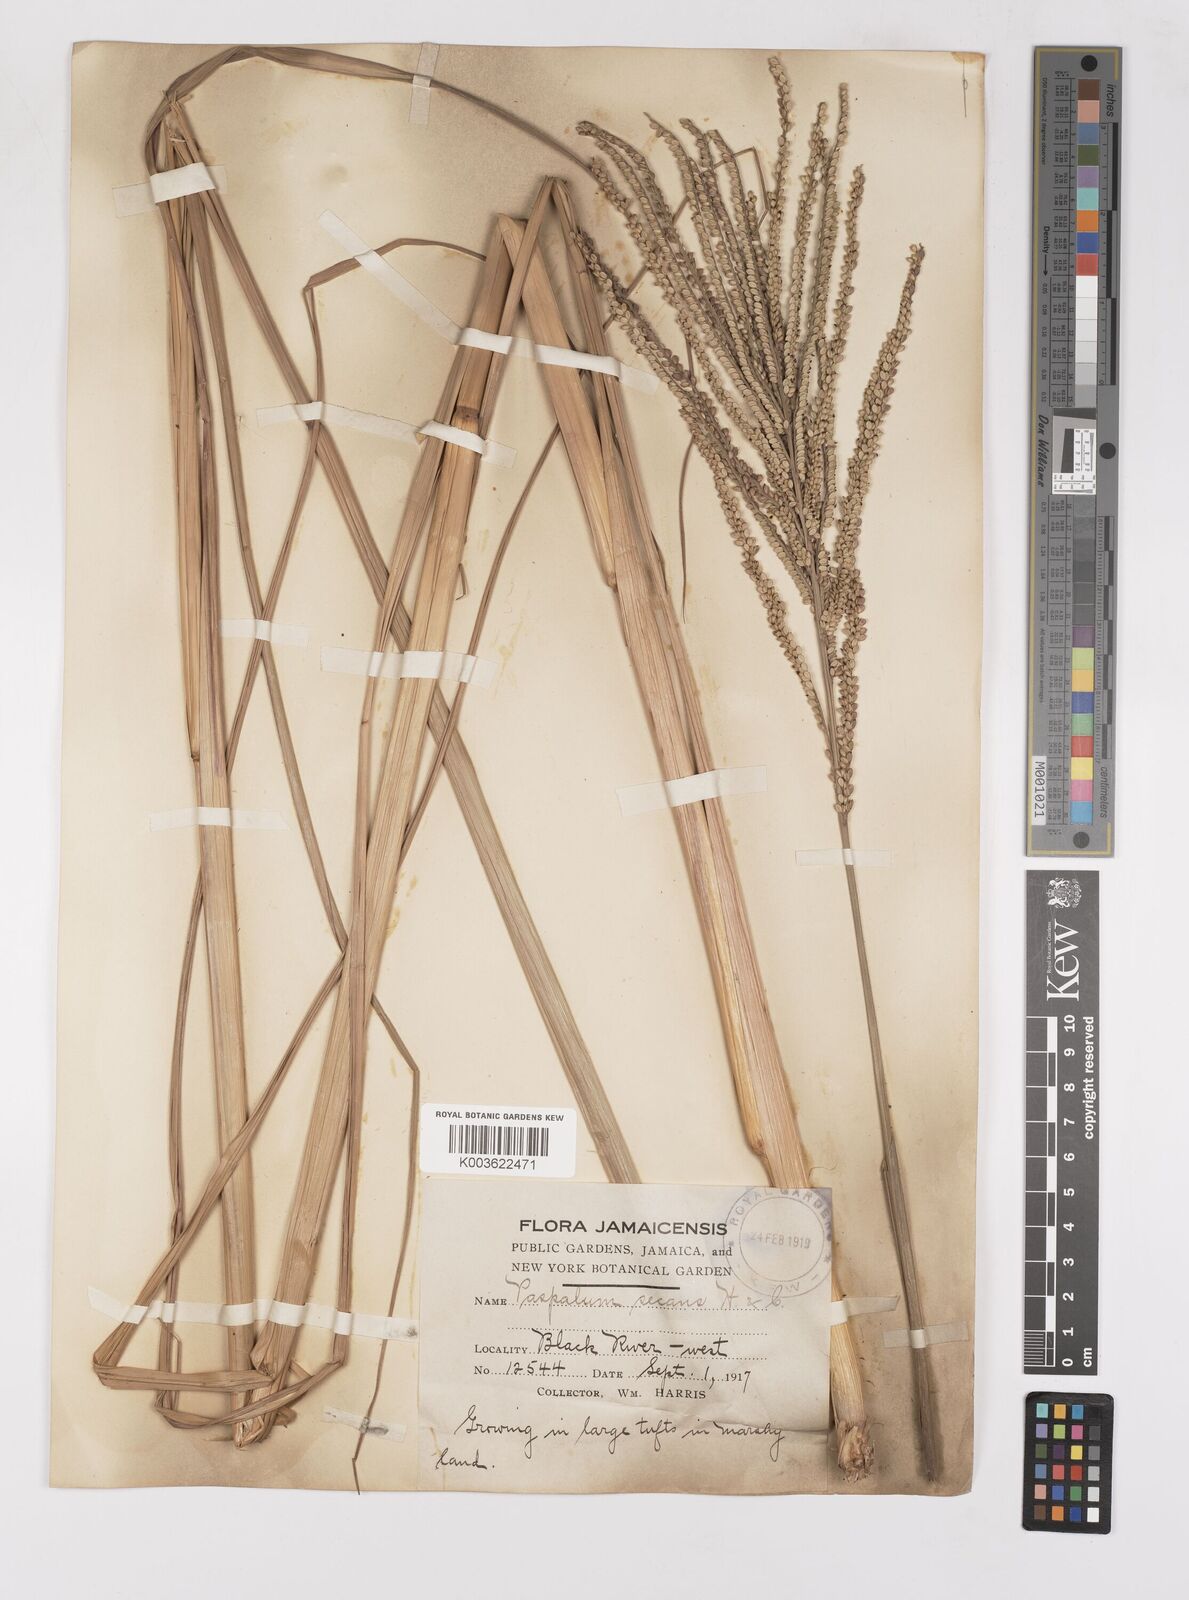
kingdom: Plantae
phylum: Tracheophyta
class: Liliopsida
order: Poales
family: Poaceae
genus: Paspalum
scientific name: Paspalum arundinaceum
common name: Thick ditch crowngrass
